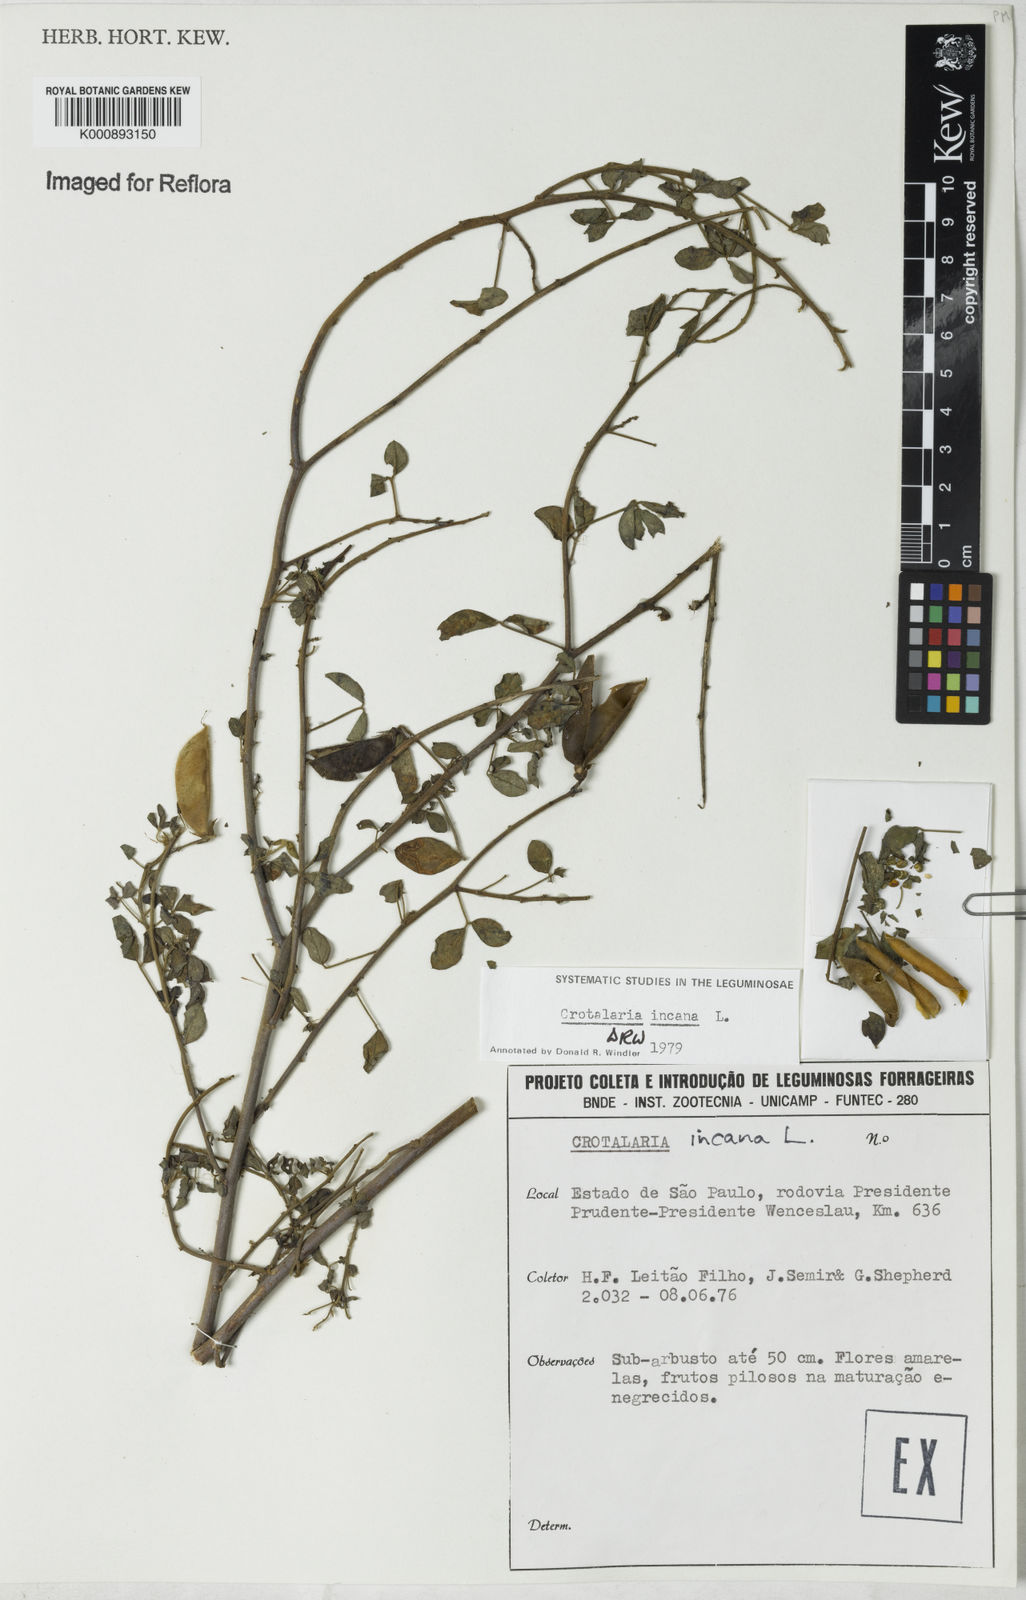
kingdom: Plantae
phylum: Tracheophyta
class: Magnoliopsida
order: Fabales
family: Fabaceae
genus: Crotalaria
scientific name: Crotalaria incana
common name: Shakeshake
